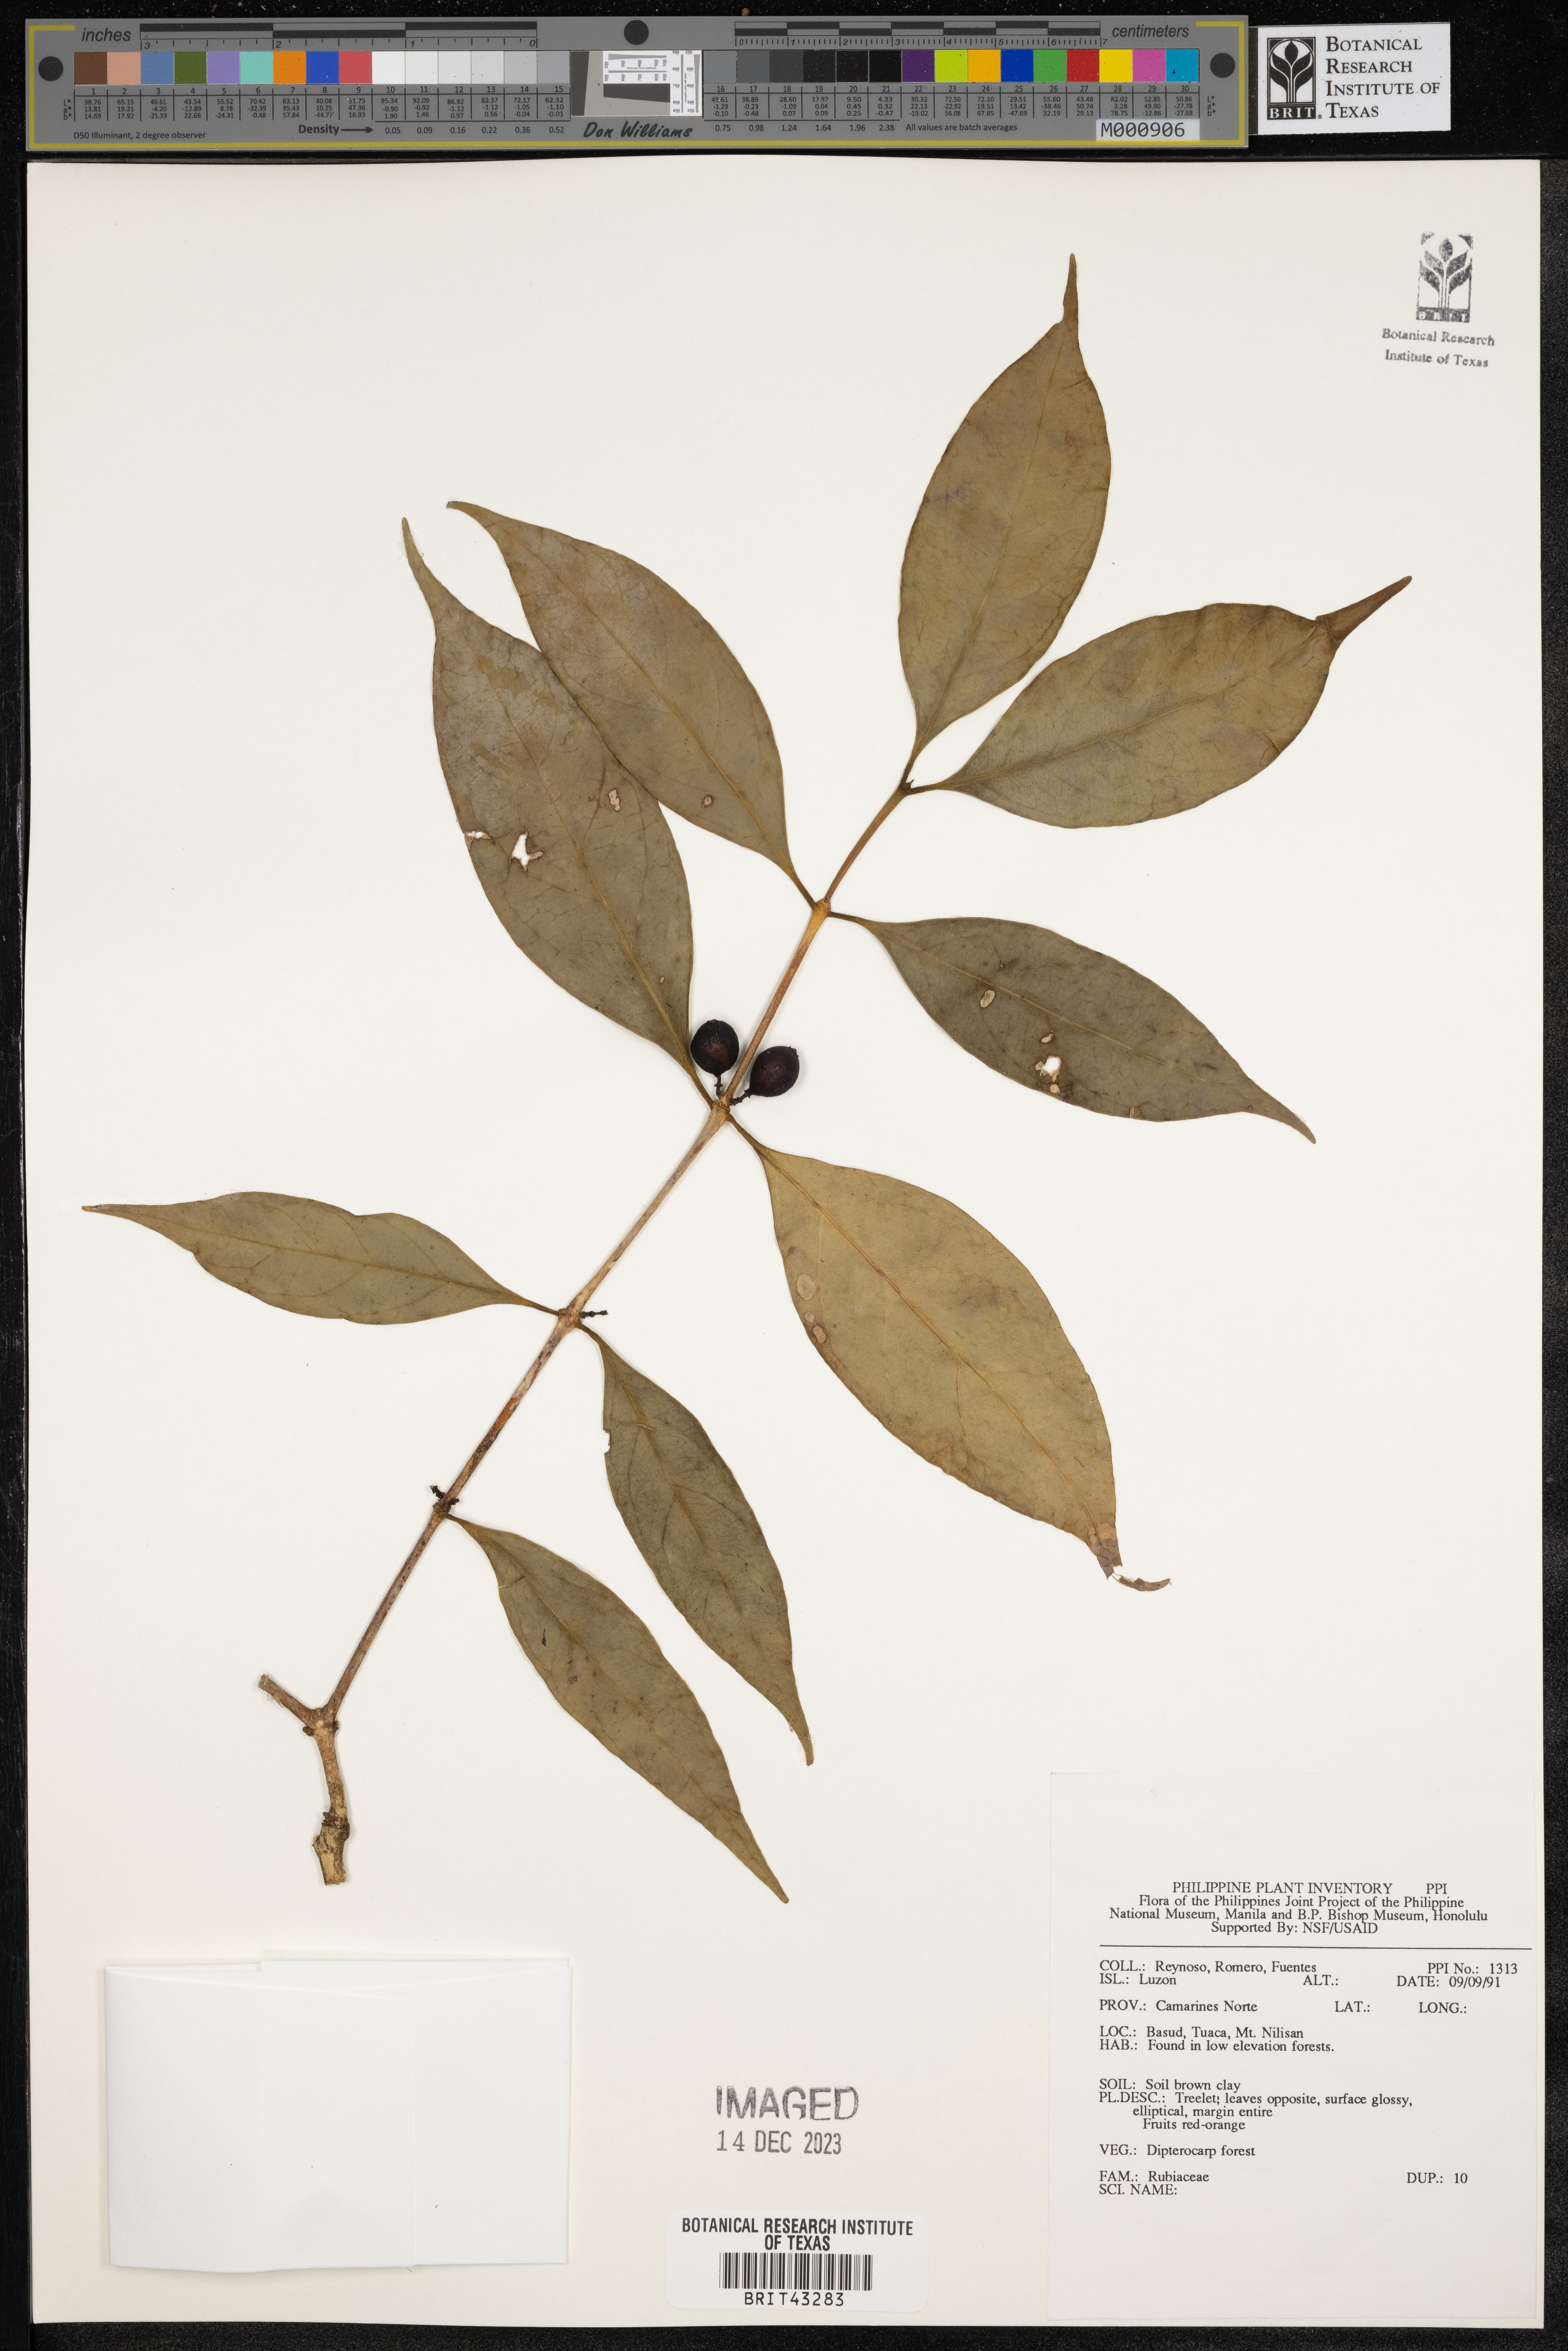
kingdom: Plantae
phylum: Tracheophyta
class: Magnoliopsida
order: Gentianales
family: Rubiaceae
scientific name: Rubiaceae
